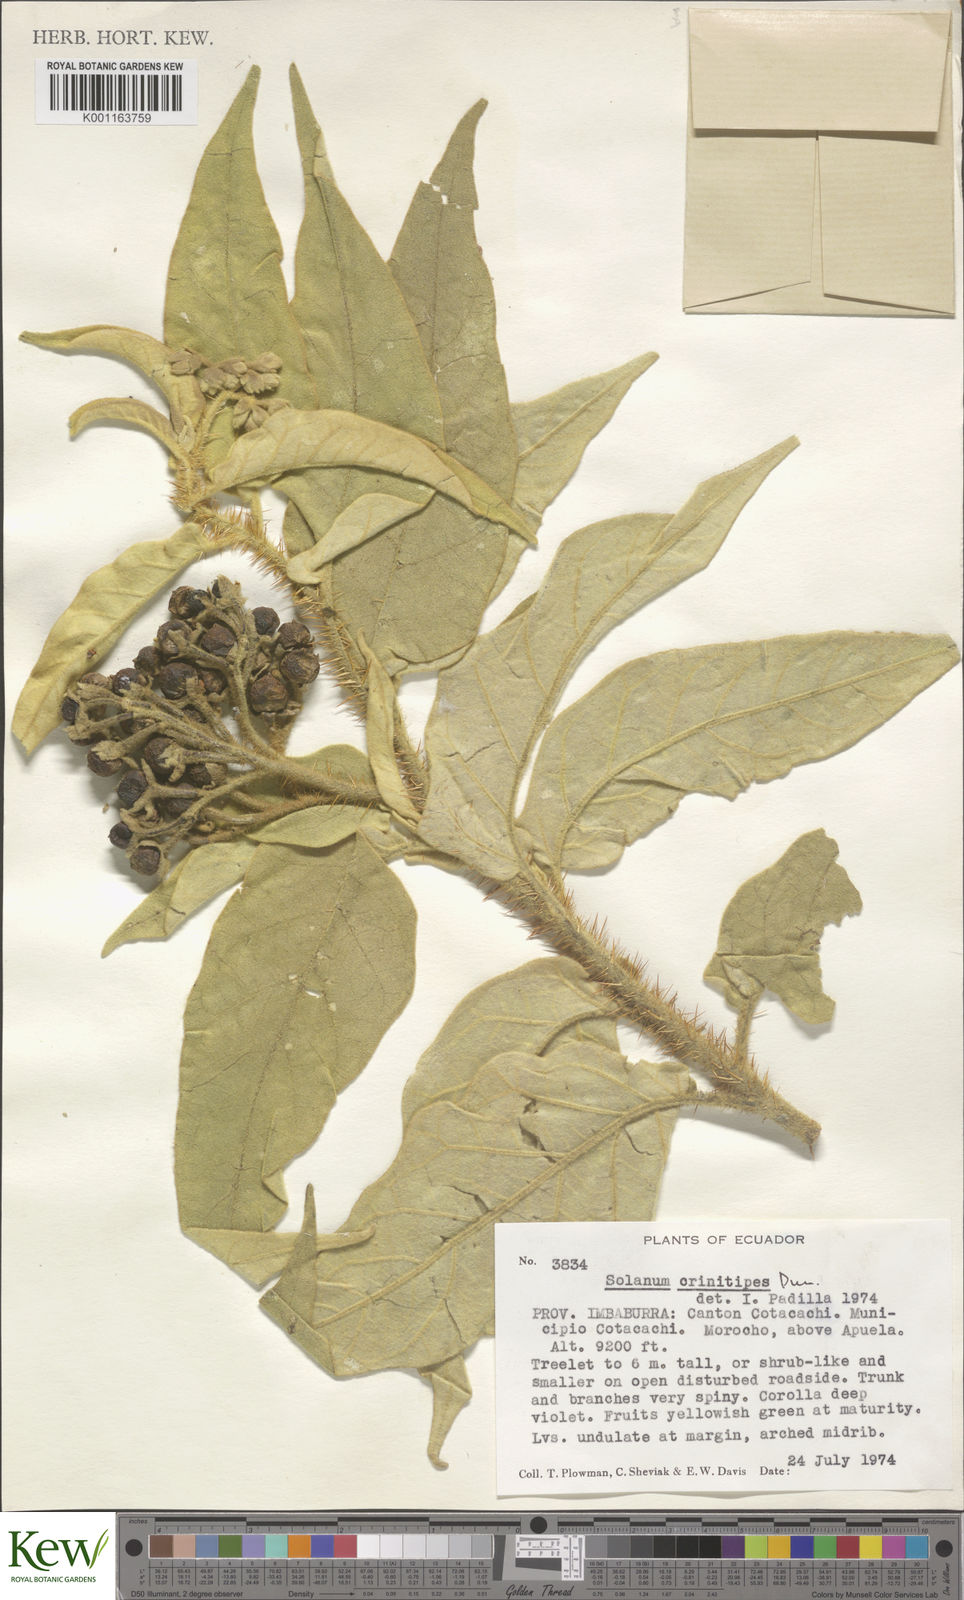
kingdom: Plantae
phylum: Tracheophyta
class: Magnoliopsida
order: Solanales
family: Solanaceae
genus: Solanum
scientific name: Solanum crinitipes
